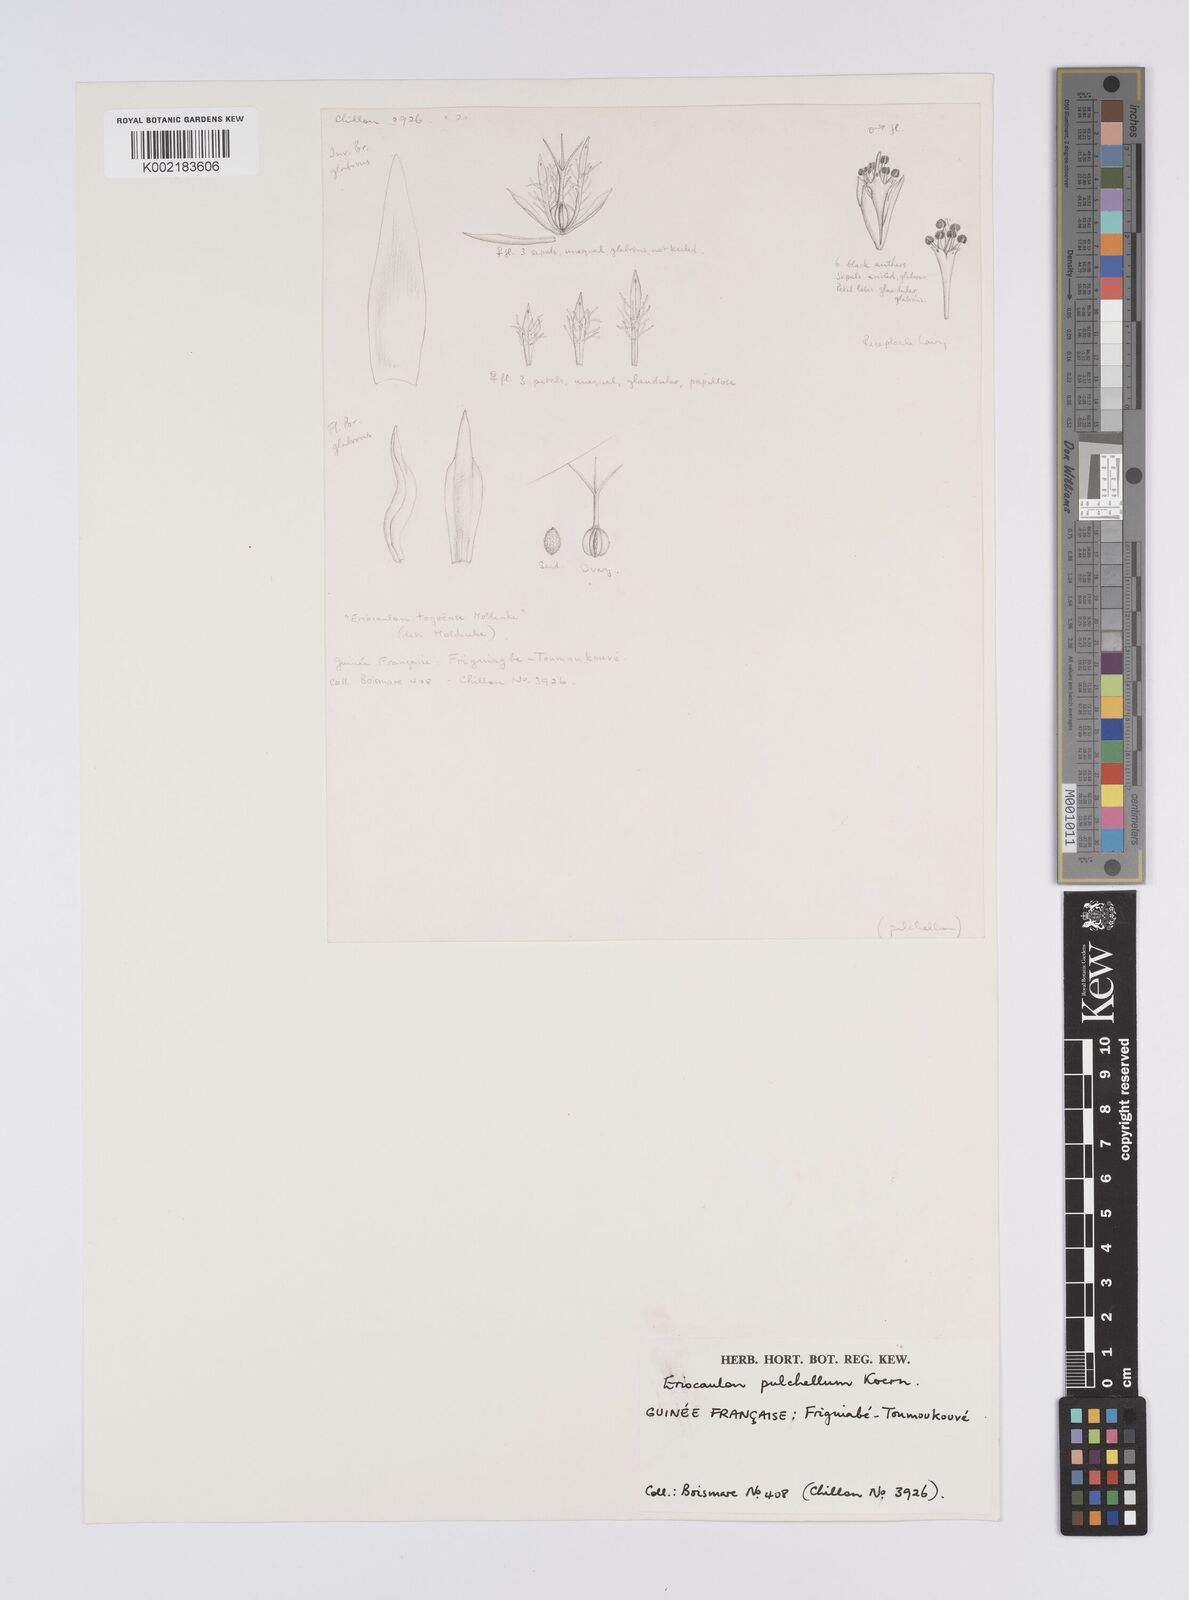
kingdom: Plantae
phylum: Tracheophyta
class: Liliopsida
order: Poales
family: Eriocaulaceae
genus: Eriocaulon
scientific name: Eriocaulon pulchellum
